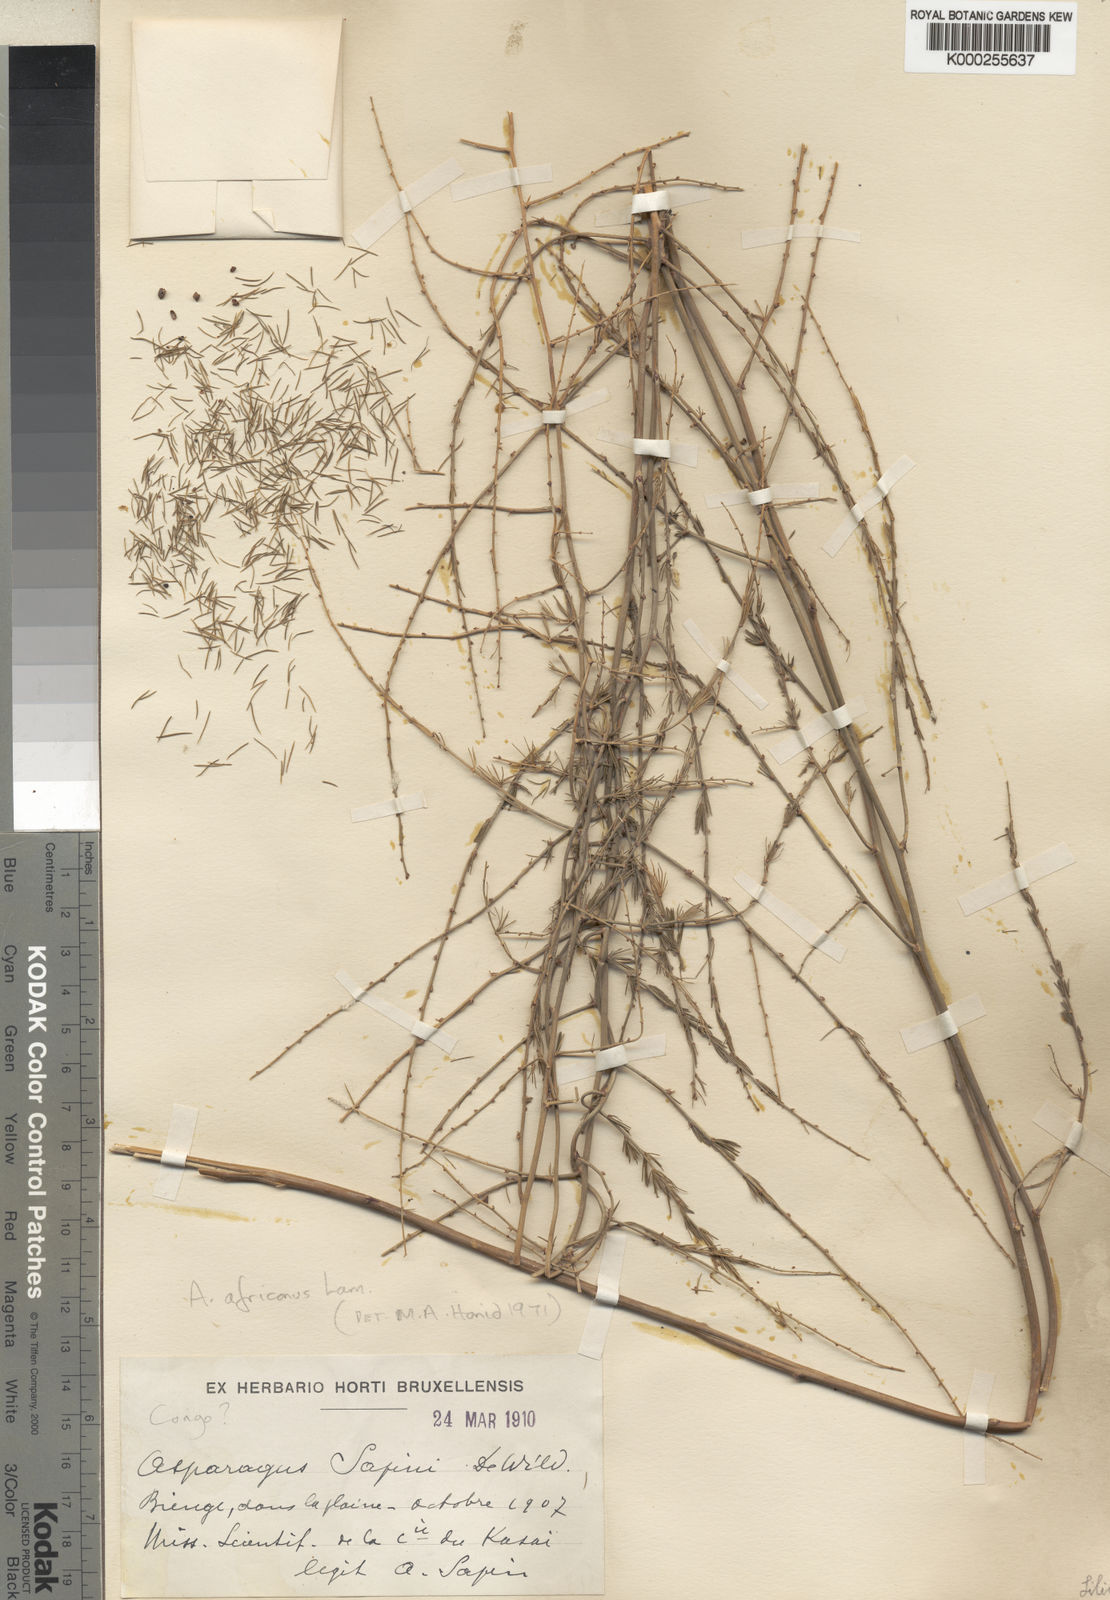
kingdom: Plantae
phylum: Tracheophyta
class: Liliopsida
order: Asparagales
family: Asparagaceae
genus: Asparagus
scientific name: Asparagus africanus
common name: Asparagus-fern
